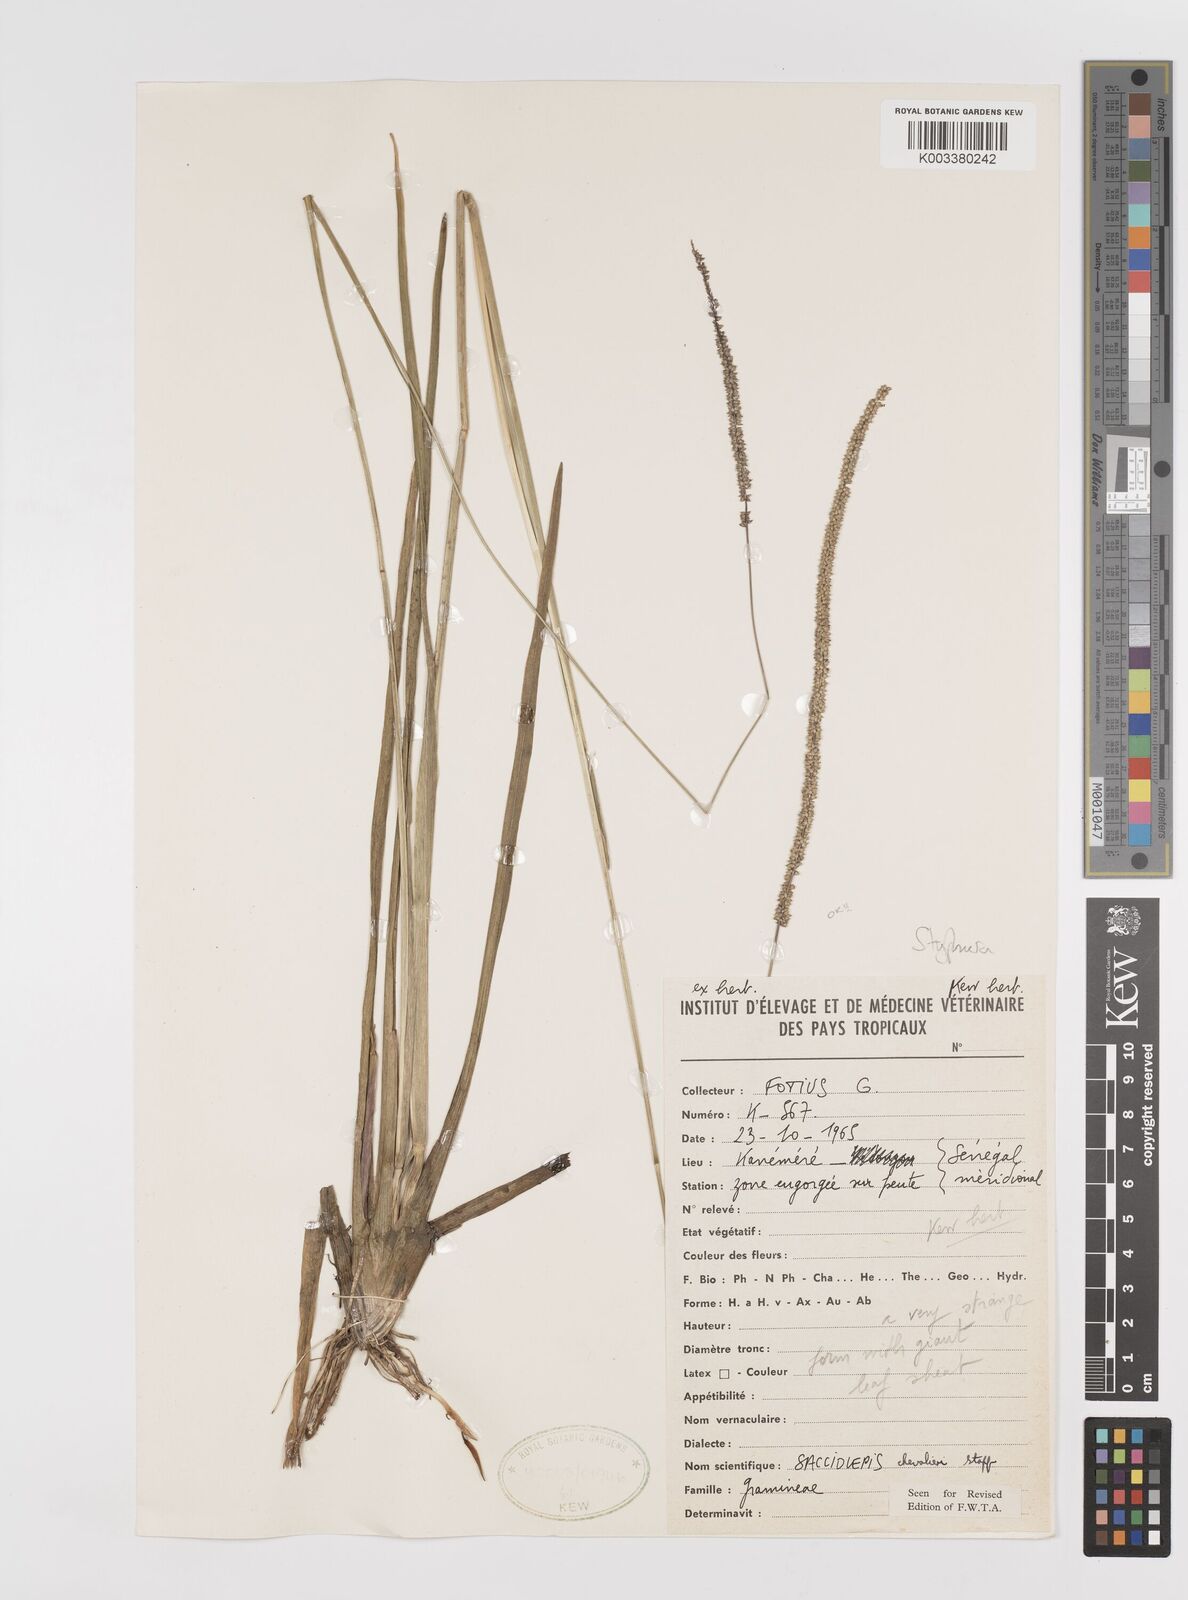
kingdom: Plantae
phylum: Tracheophyta
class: Liliopsida
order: Poales
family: Poaceae
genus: Sacciolepis
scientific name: Sacciolepis chevalieri
